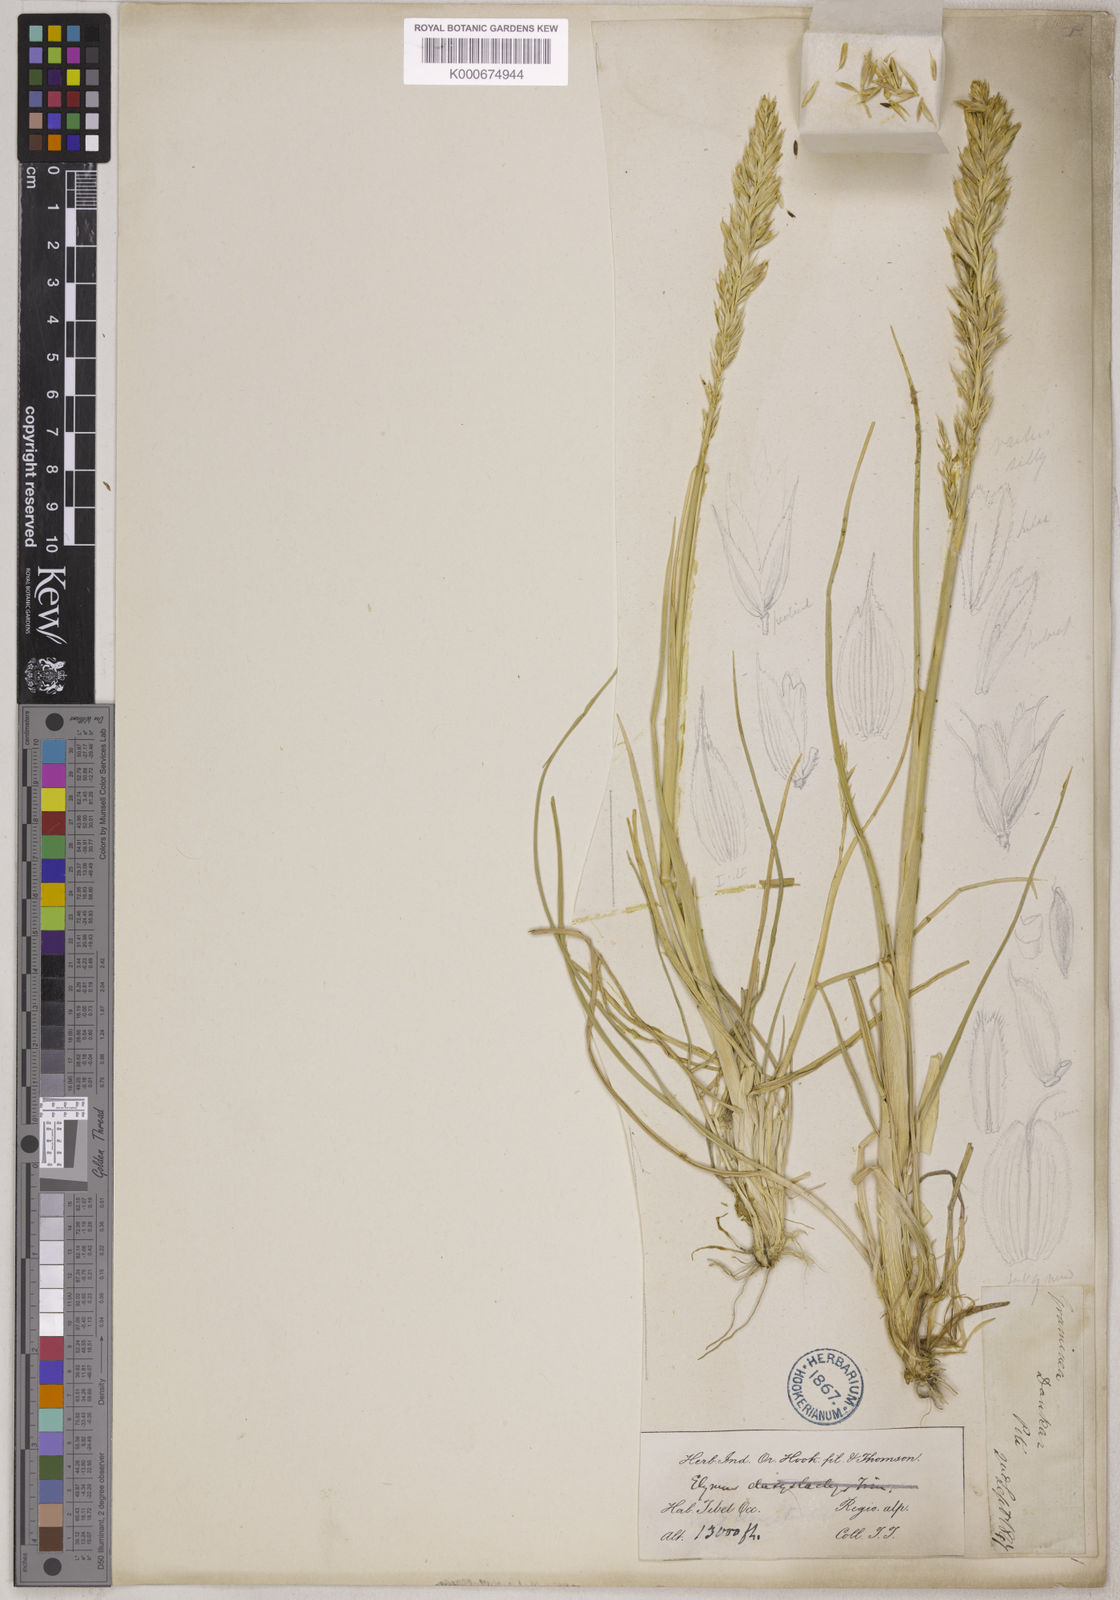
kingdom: Plantae
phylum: Tracheophyta
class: Liliopsida
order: Poales
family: Poaceae
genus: Elymus
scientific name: Elymus
